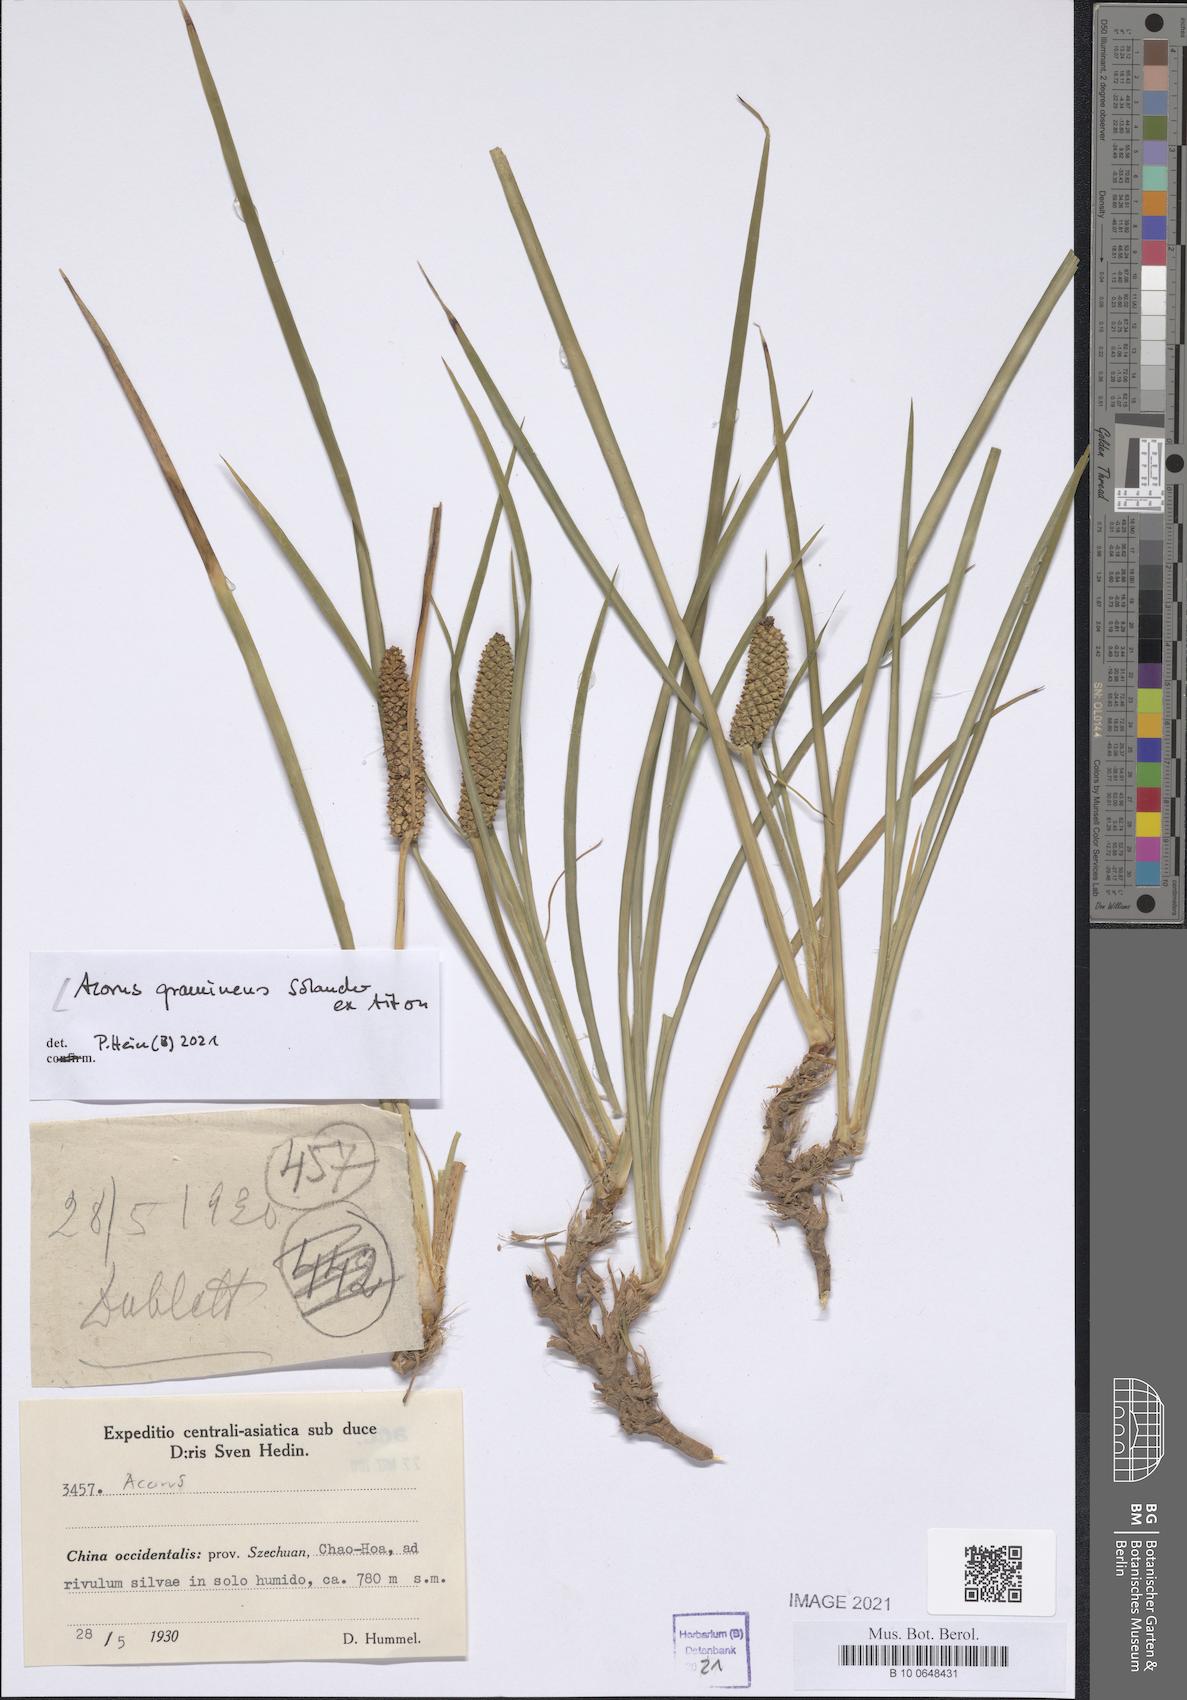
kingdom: Plantae
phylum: Tracheophyta
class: Liliopsida
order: Acorales
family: Acoraceae
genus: Acorus
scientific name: Acorus gramineus
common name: Slender sweet-flag
